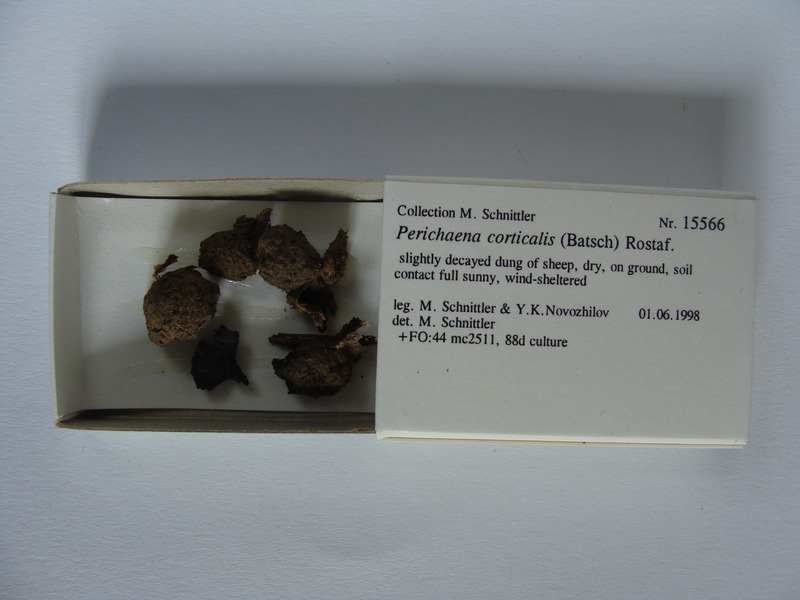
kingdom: Protozoa
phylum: Mycetozoa
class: Myxomycetes
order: Trichiales
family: Trichiaceae
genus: Perichaena
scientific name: Perichaena corticalis
